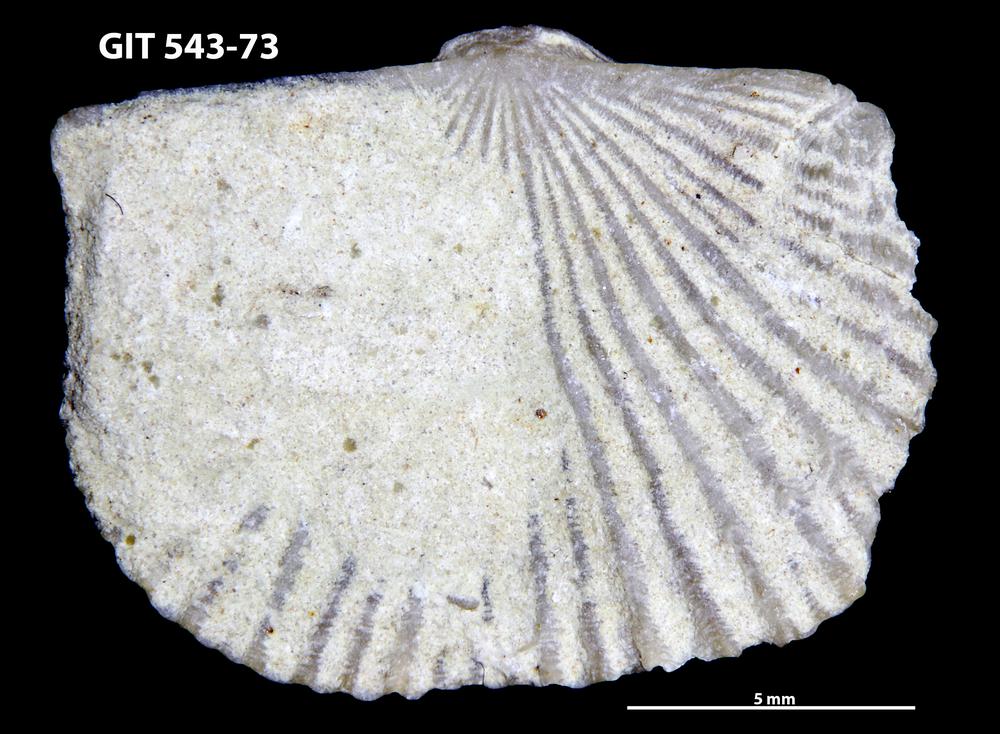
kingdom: Animalia
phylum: Brachiopoda
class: Rhynchonellata
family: Clitambonitidae
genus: Vellamo
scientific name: Vellamo
